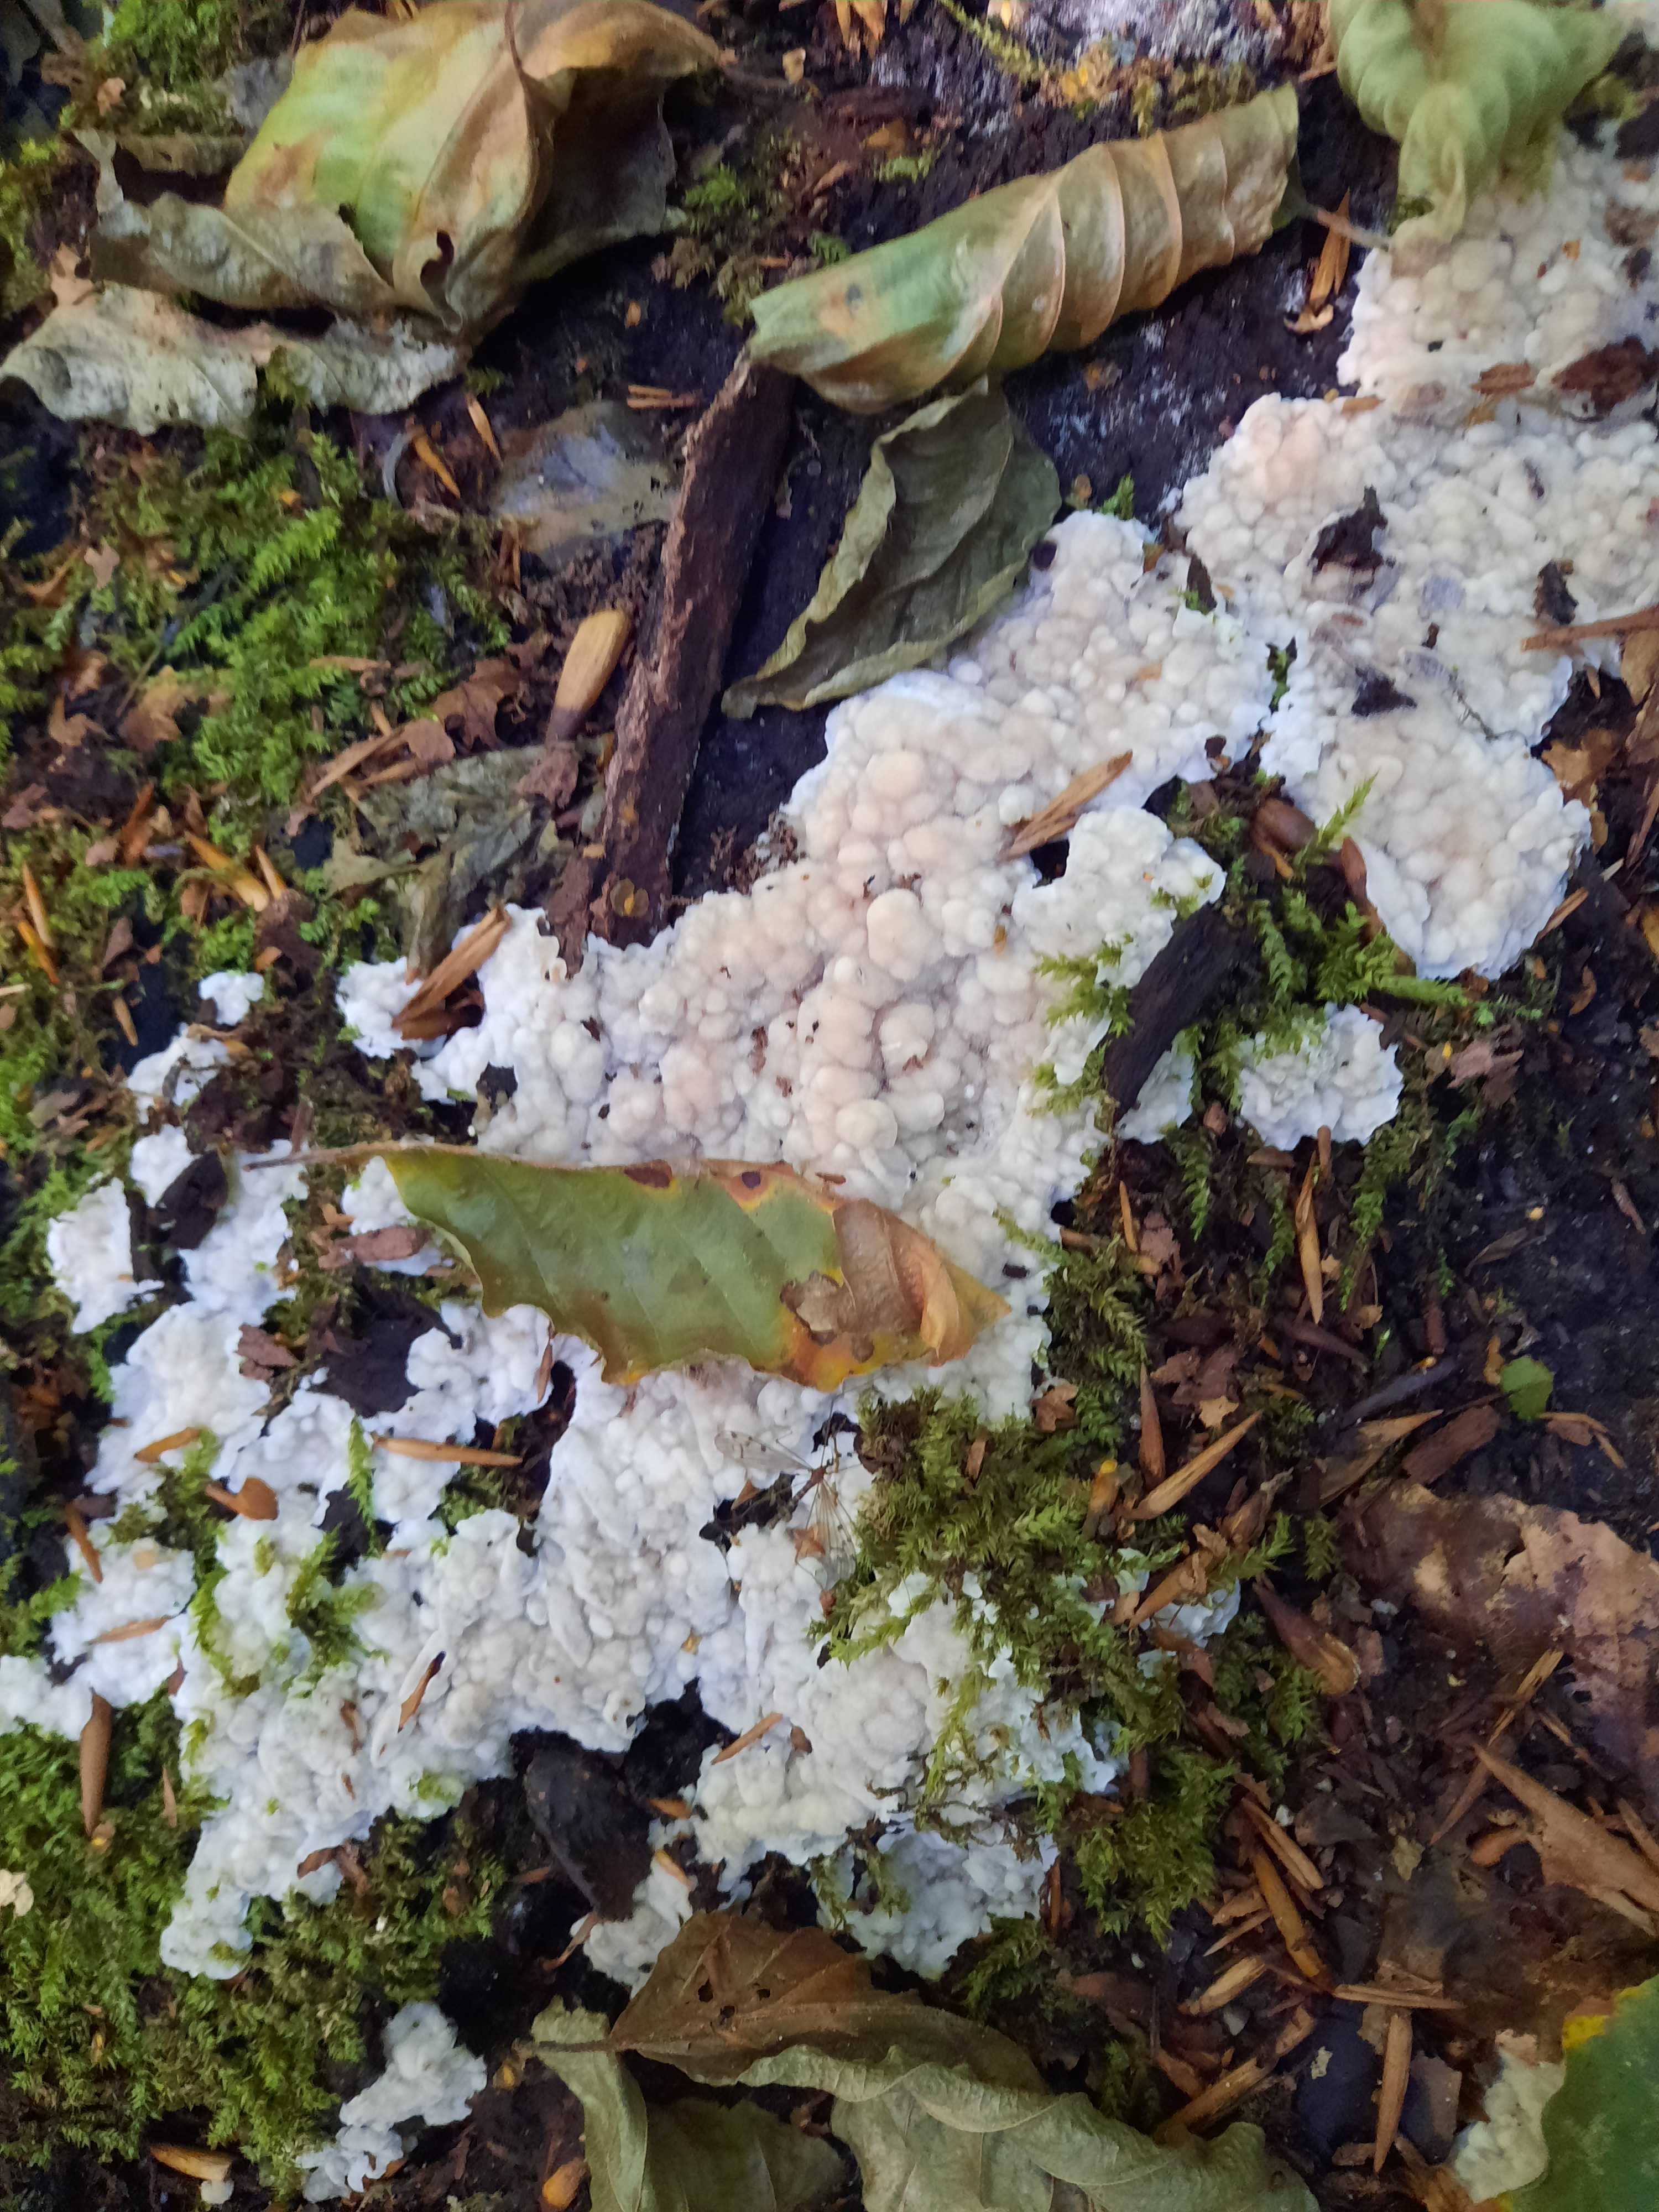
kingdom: Fungi
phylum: Basidiomycota
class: Agaricomycetes
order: Polyporales
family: Polyporaceae
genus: Trametes
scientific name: Trametes versicolor
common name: broget læderporesvamp
